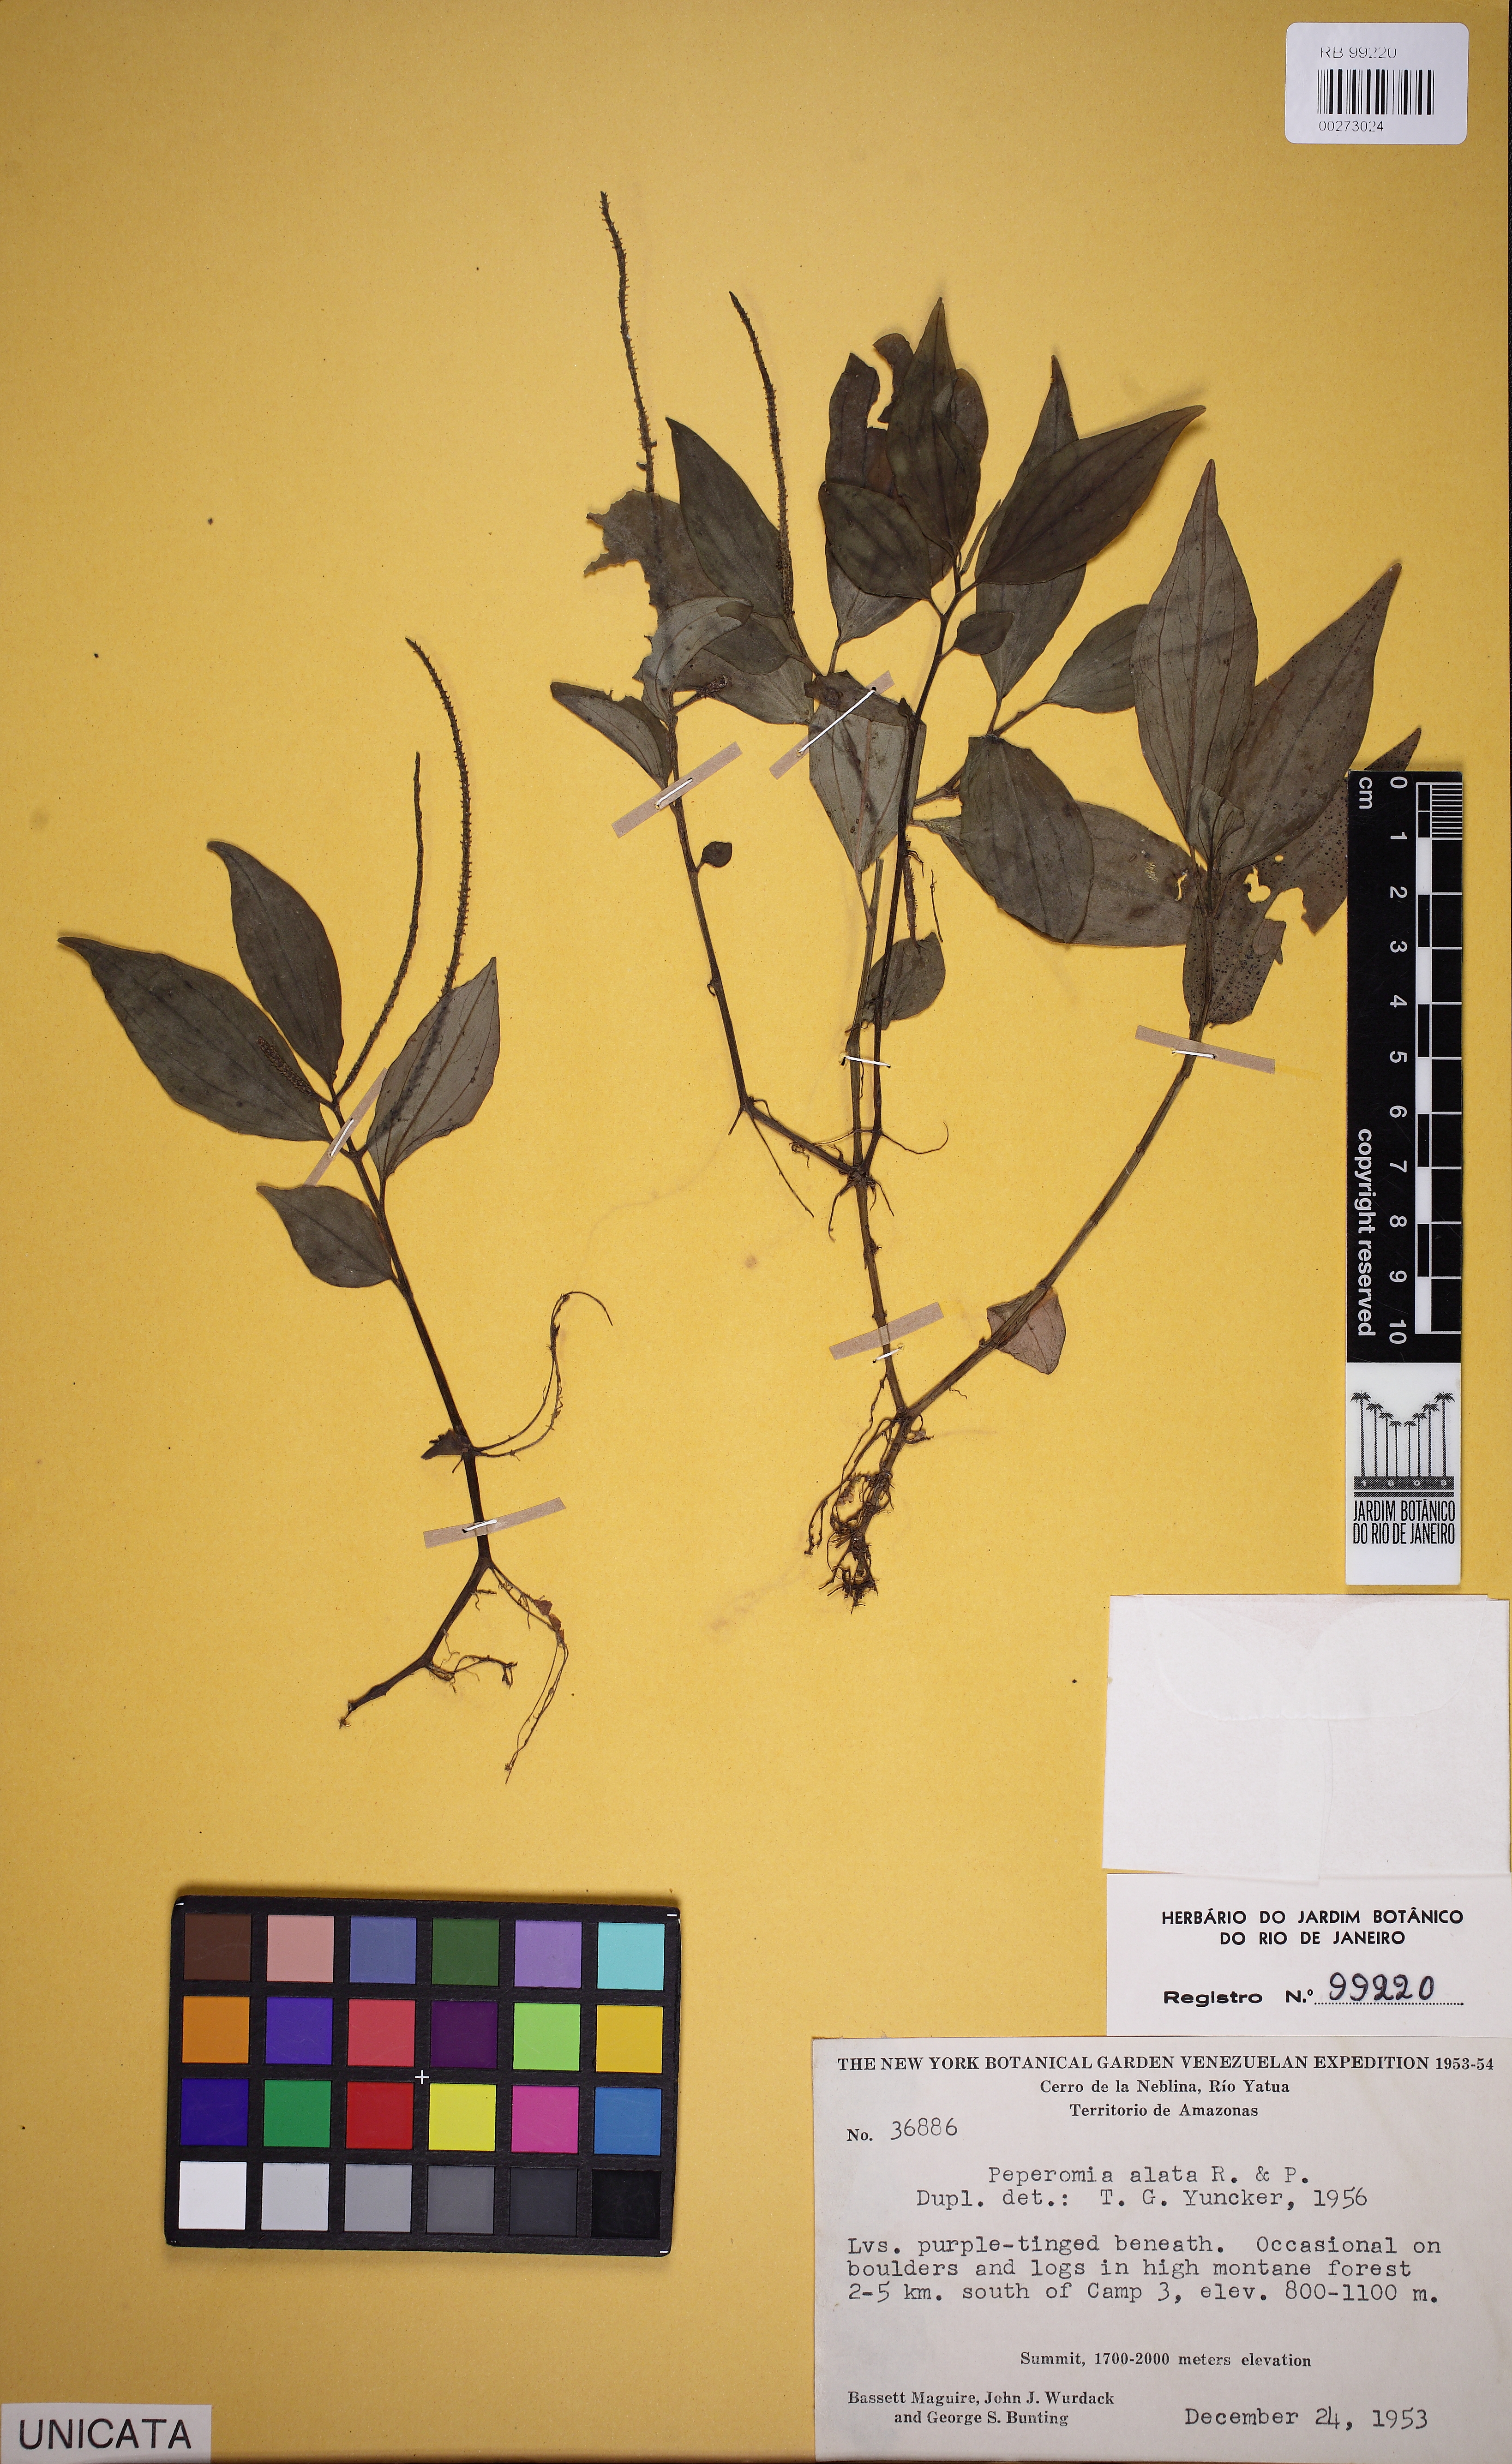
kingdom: Plantae
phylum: Tracheophyta
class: Magnoliopsida
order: Piperales
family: Piperaceae
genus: Peperomia
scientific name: Peperomia alata
